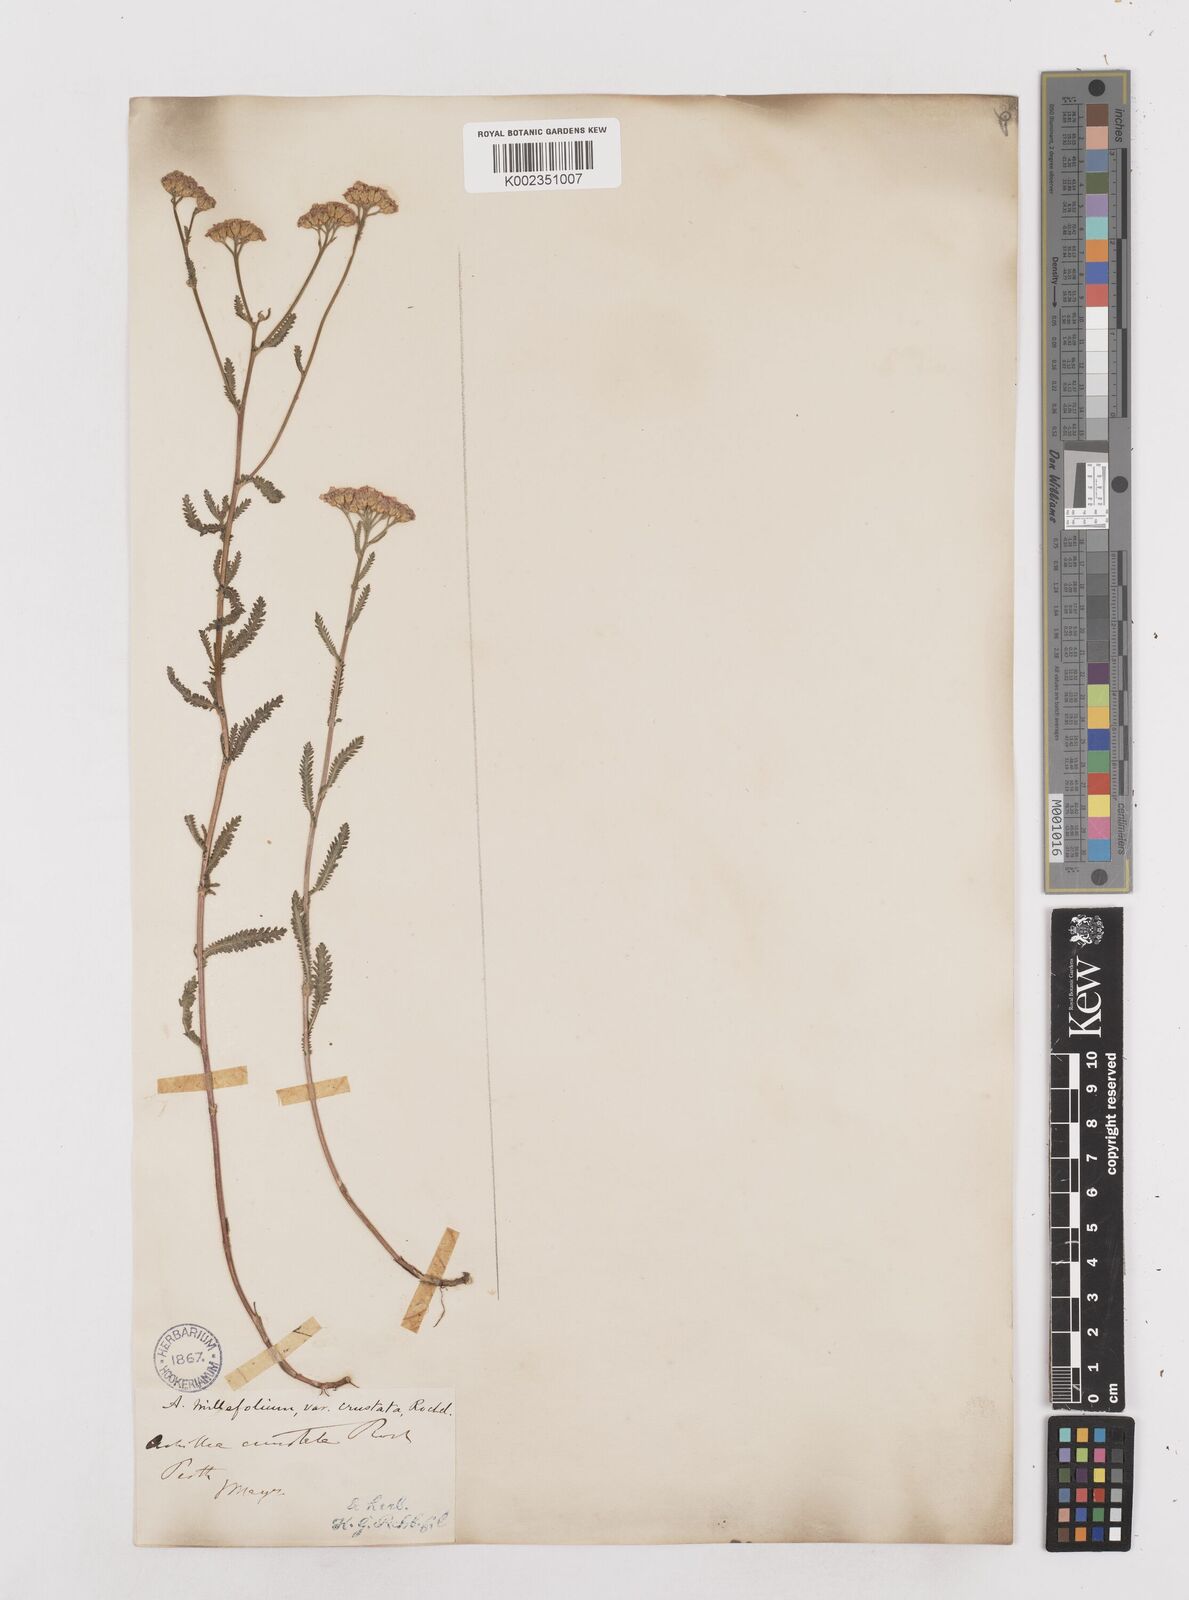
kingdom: Plantae
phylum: Tracheophyta
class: Magnoliopsida
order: Asterales
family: Asteraceae
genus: Achillea
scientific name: Achillea millefolium
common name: Yarrow
